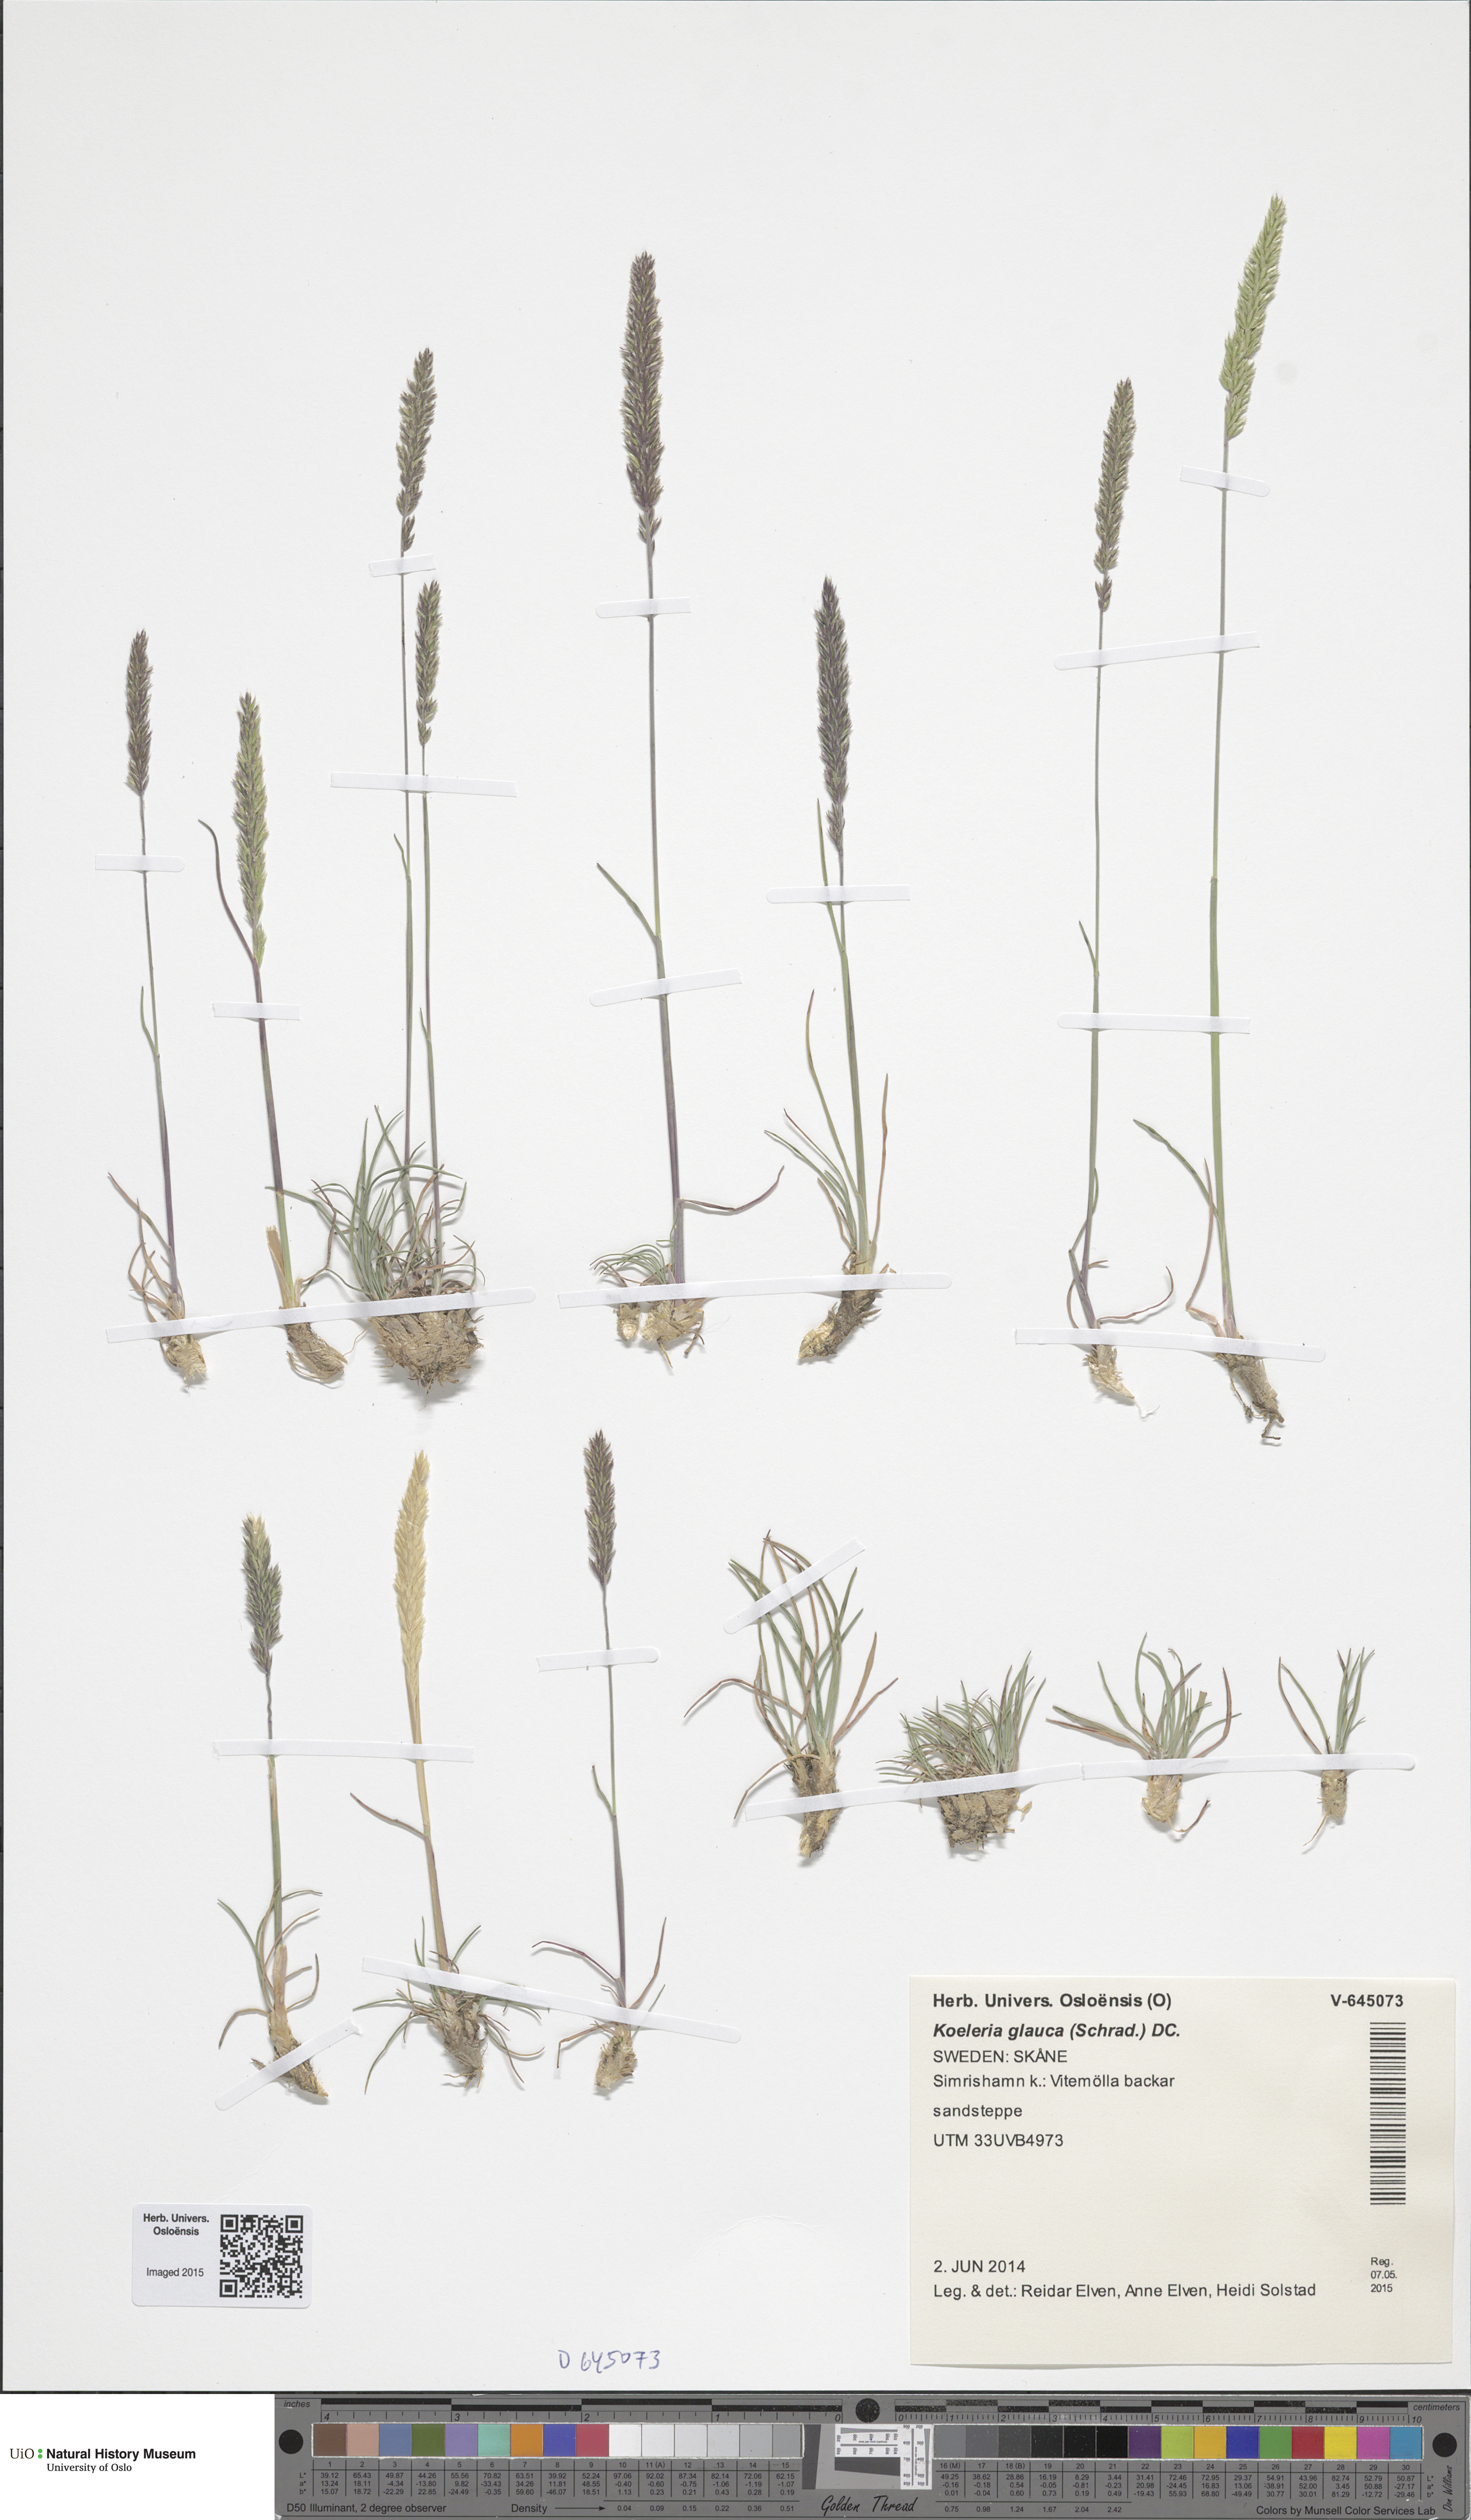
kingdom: Plantae
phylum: Tracheophyta
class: Liliopsida
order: Poales
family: Poaceae
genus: Koeleria
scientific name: Koeleria glauca
